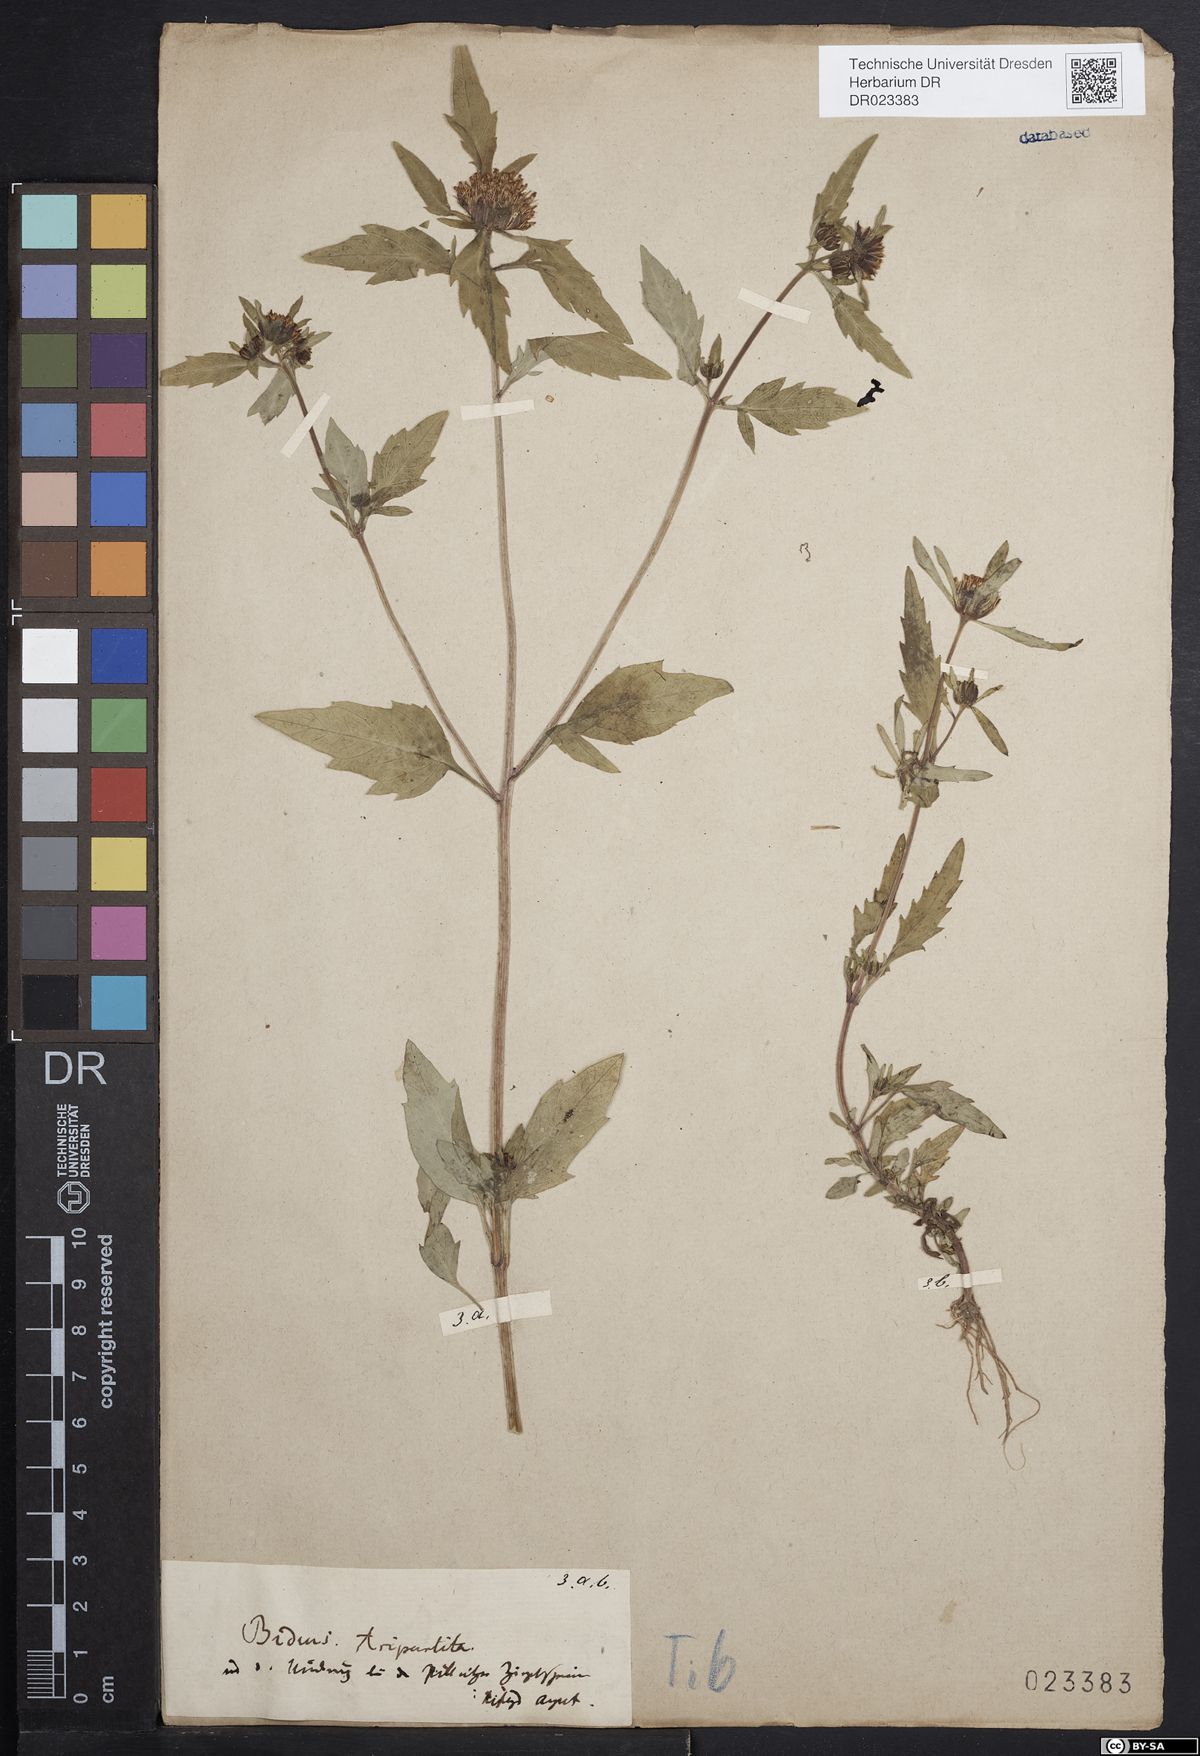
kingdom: Plantae
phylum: Tracheophyta
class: Magnoliopsida
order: Asterales
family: Asteraceae
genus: Bidens
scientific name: Bidens tripartita
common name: Trifid bur-marigold
